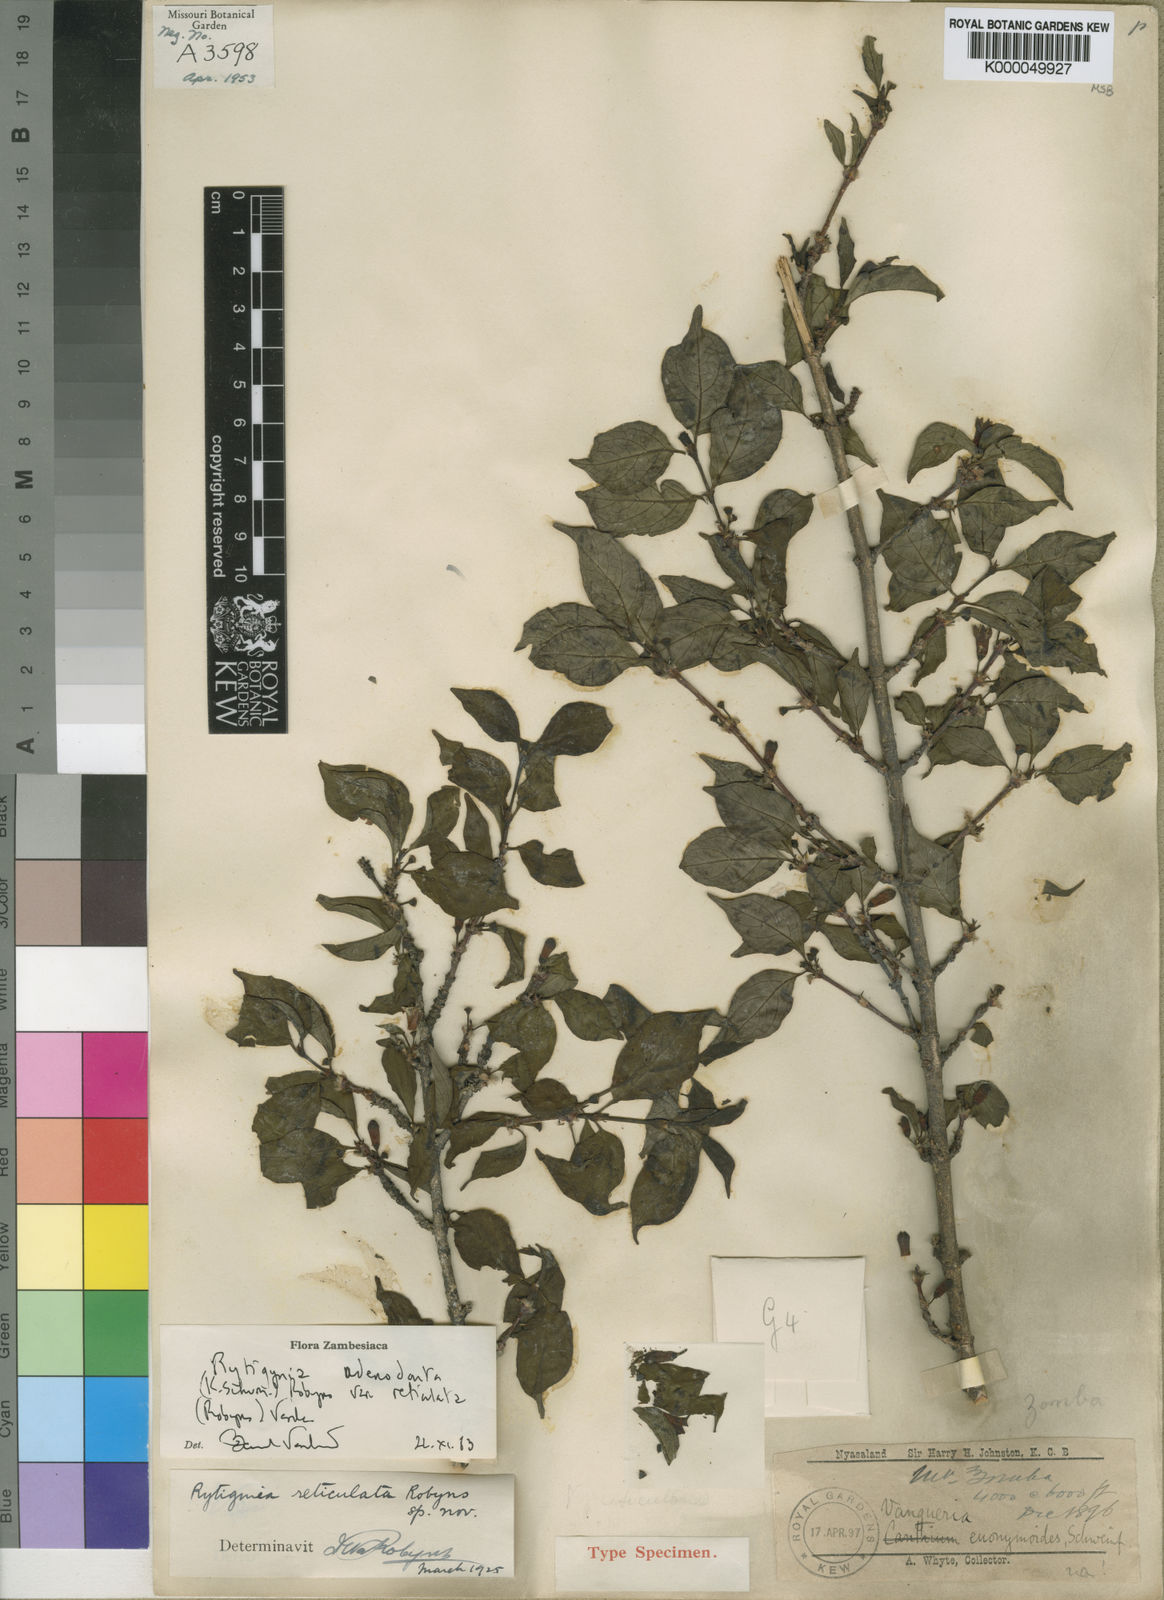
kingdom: Plantae
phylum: Tracheophyta
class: Magnoliopsida
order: Gentianales
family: Rubiaceae
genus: Rytigynia
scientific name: Rytigynia adenodonta
